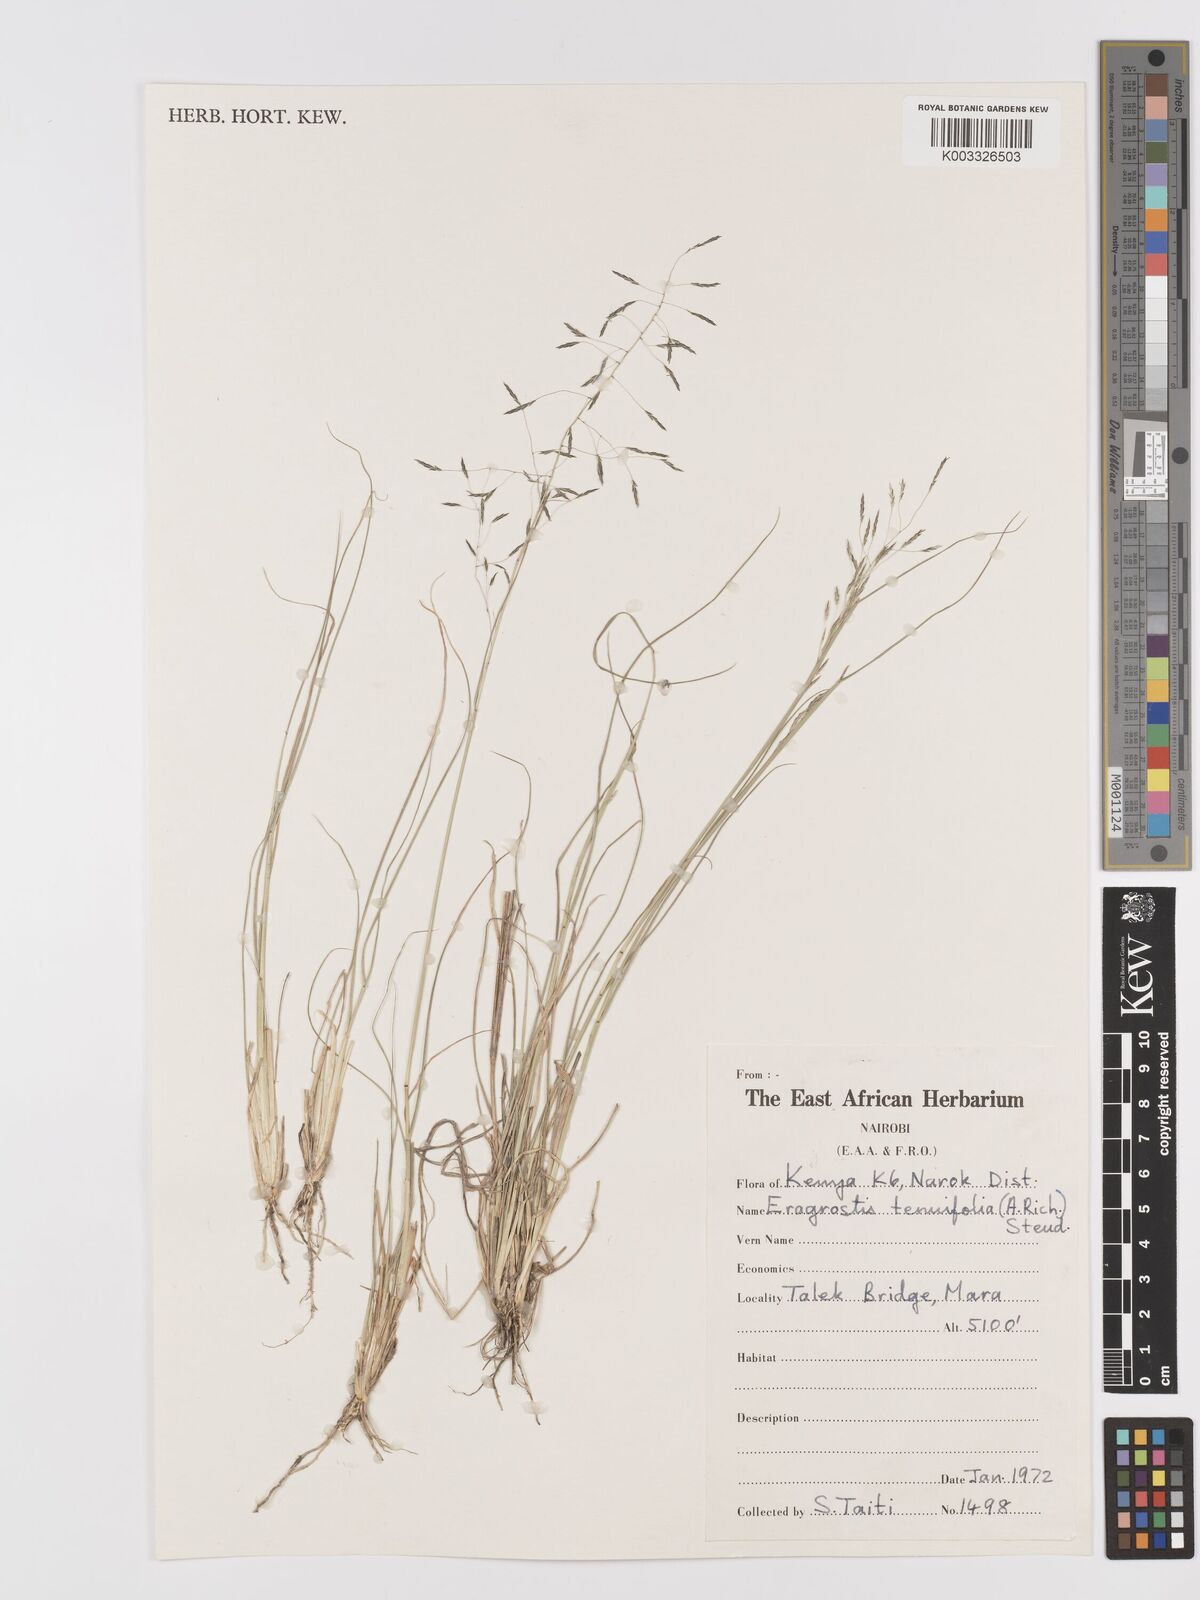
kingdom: Plantae
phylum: Tracheophyta
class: Liliopsida
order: Poales
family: Poaceae
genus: Eragrostis
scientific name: Eragrostis tenuifolia
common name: Elastic grass
